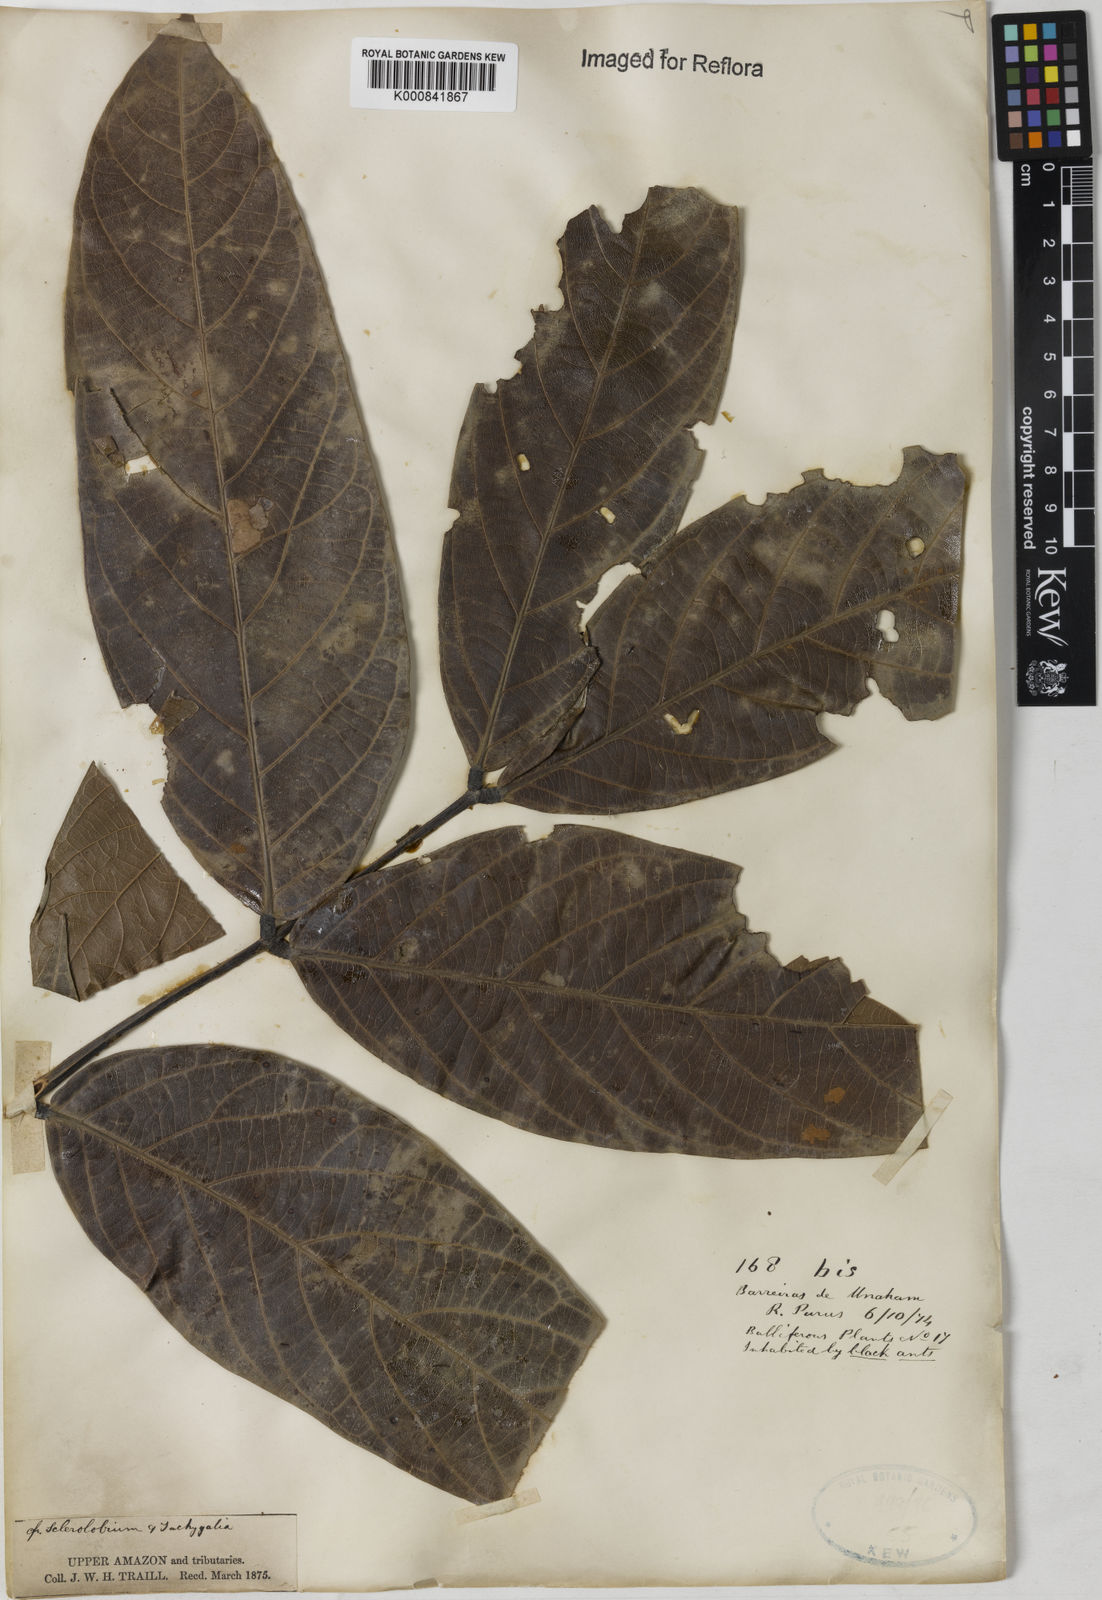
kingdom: Plantae
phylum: Tracheophyta
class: Magnoliopsida
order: Fabales
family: Fabaceae
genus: Tachigali
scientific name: Tachigali
